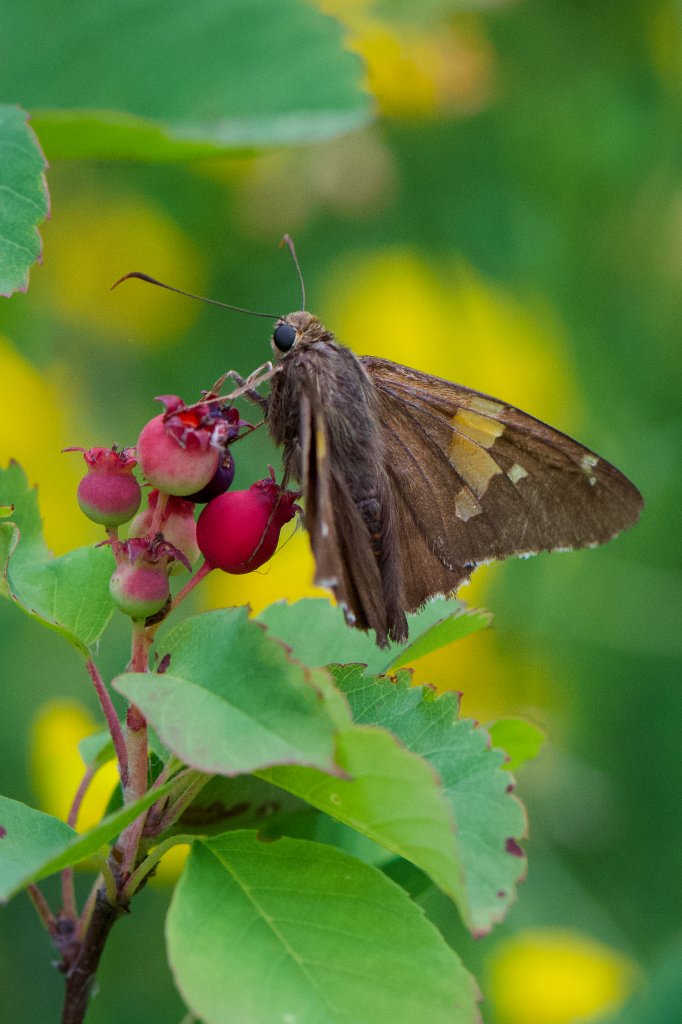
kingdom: Animalia
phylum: Arthropoda
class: Insecta
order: Lepidoptera
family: Hesperiidae
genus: Epargyreus
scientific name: Epargyreus clarus
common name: Silver-spotted Skipper
